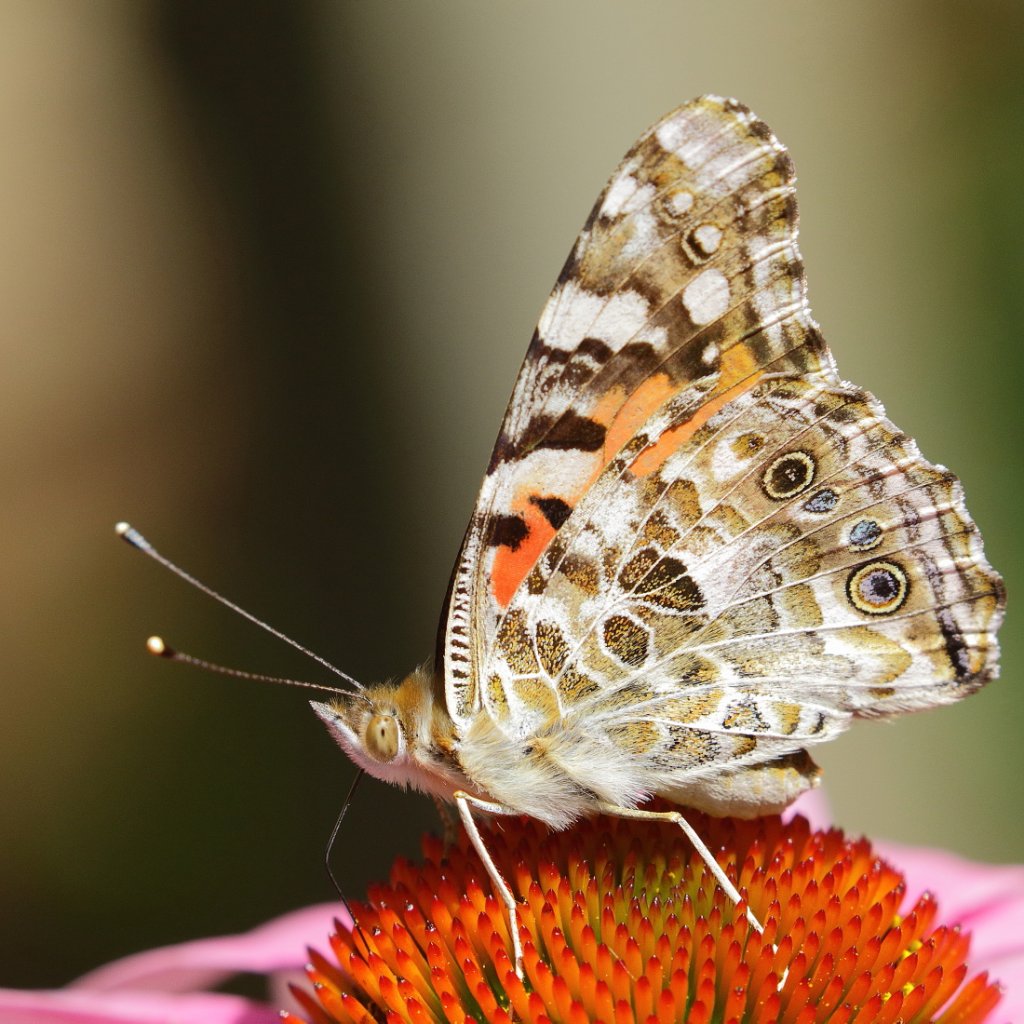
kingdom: Animalia
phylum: Arthropoda
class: Insecta
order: Lepidoptera
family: Nymphalidae
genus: Vanessa
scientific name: Vanessa cardui
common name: Painted Lady
